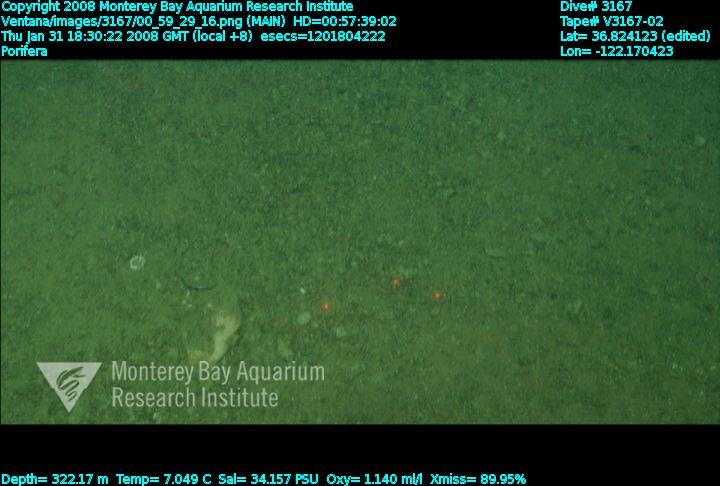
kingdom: Animalia
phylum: Porifera
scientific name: Porifera
